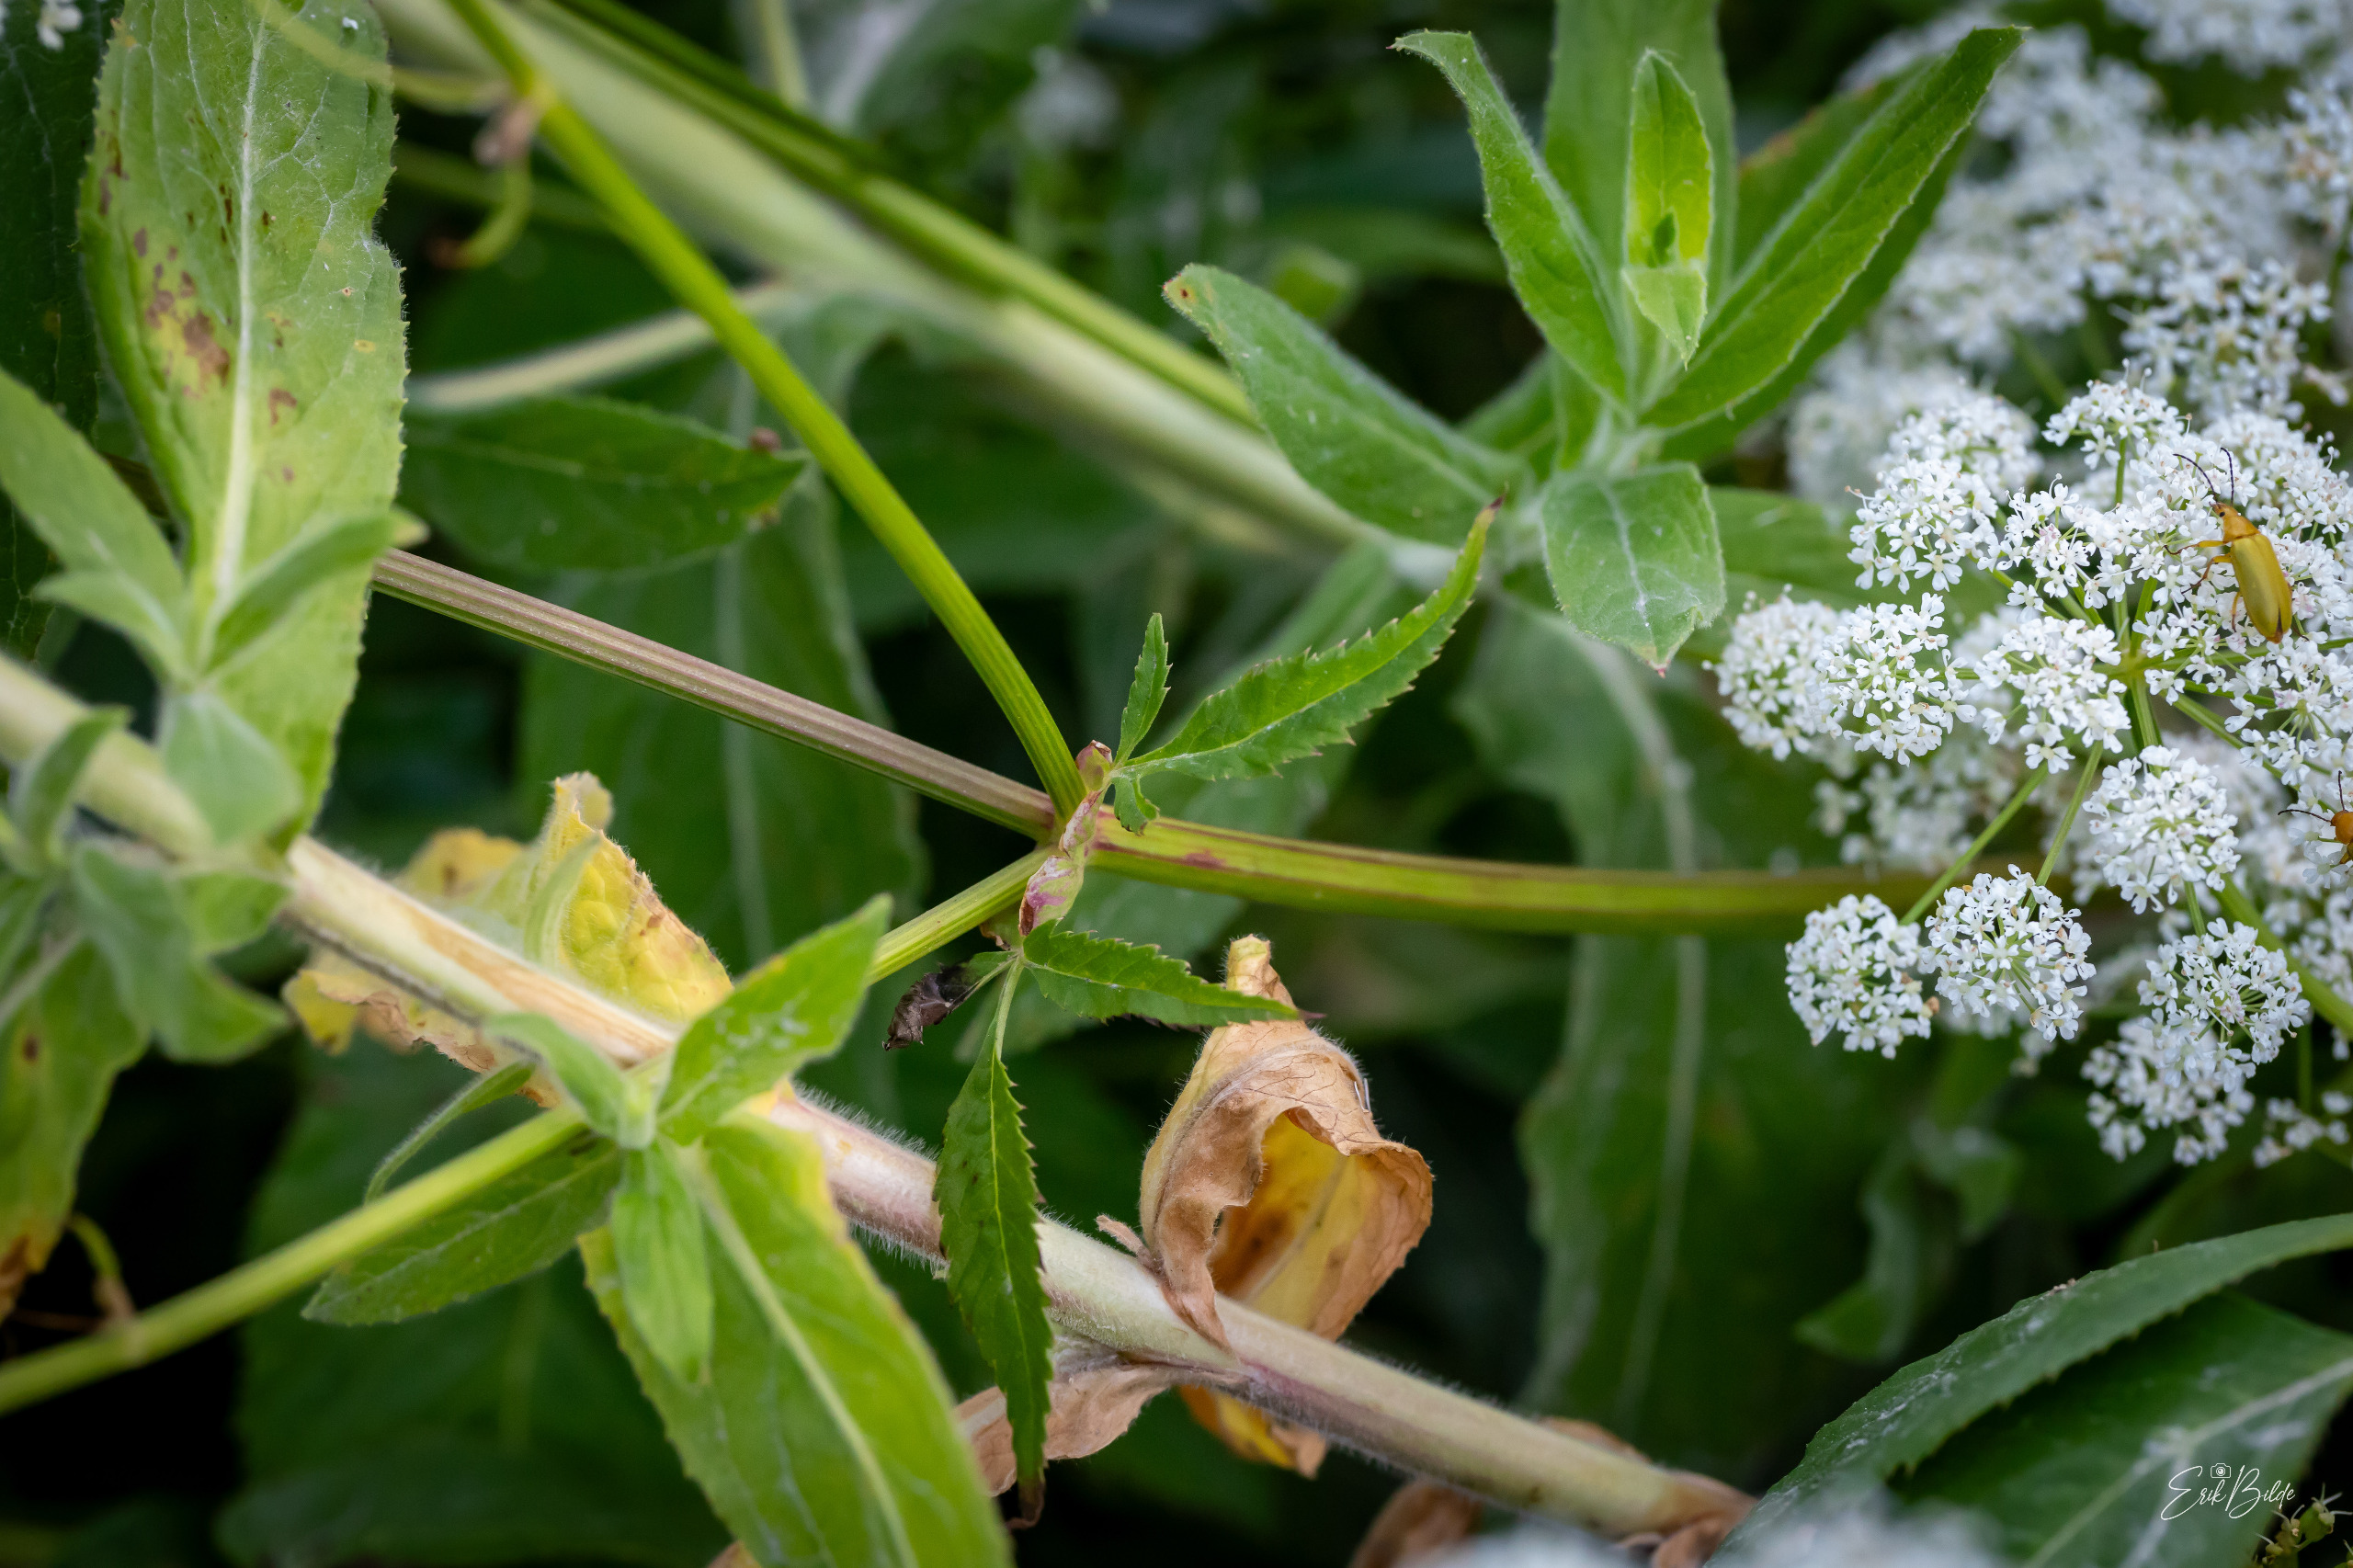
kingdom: Plantae
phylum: Tracheophyta
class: Magnoliopsida
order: Apiales
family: Apiaceae
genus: Aegopodium
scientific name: Aegopodium podagraria
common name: Skvalderkål
